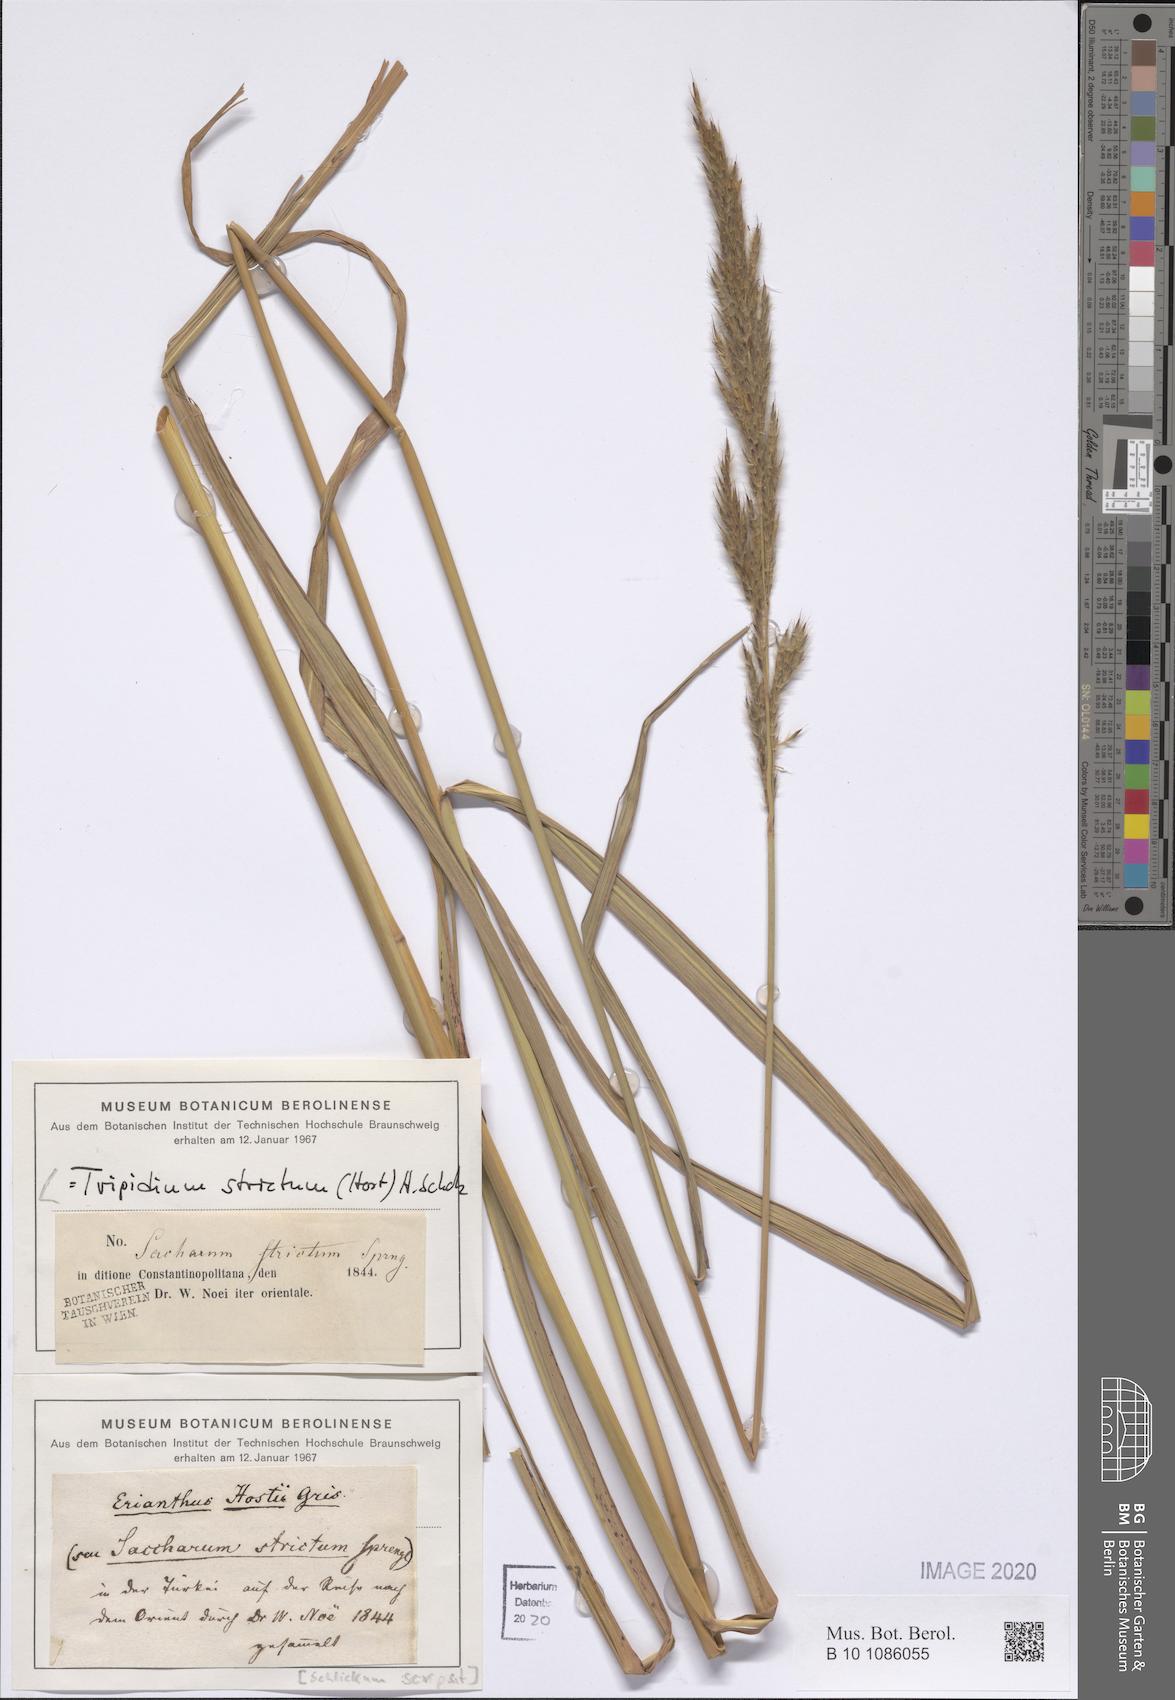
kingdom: Plantae
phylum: Tracheophyta
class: Liliopsida
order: Poales
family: Poaceae
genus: Tripidium
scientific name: Tripidium strictum
